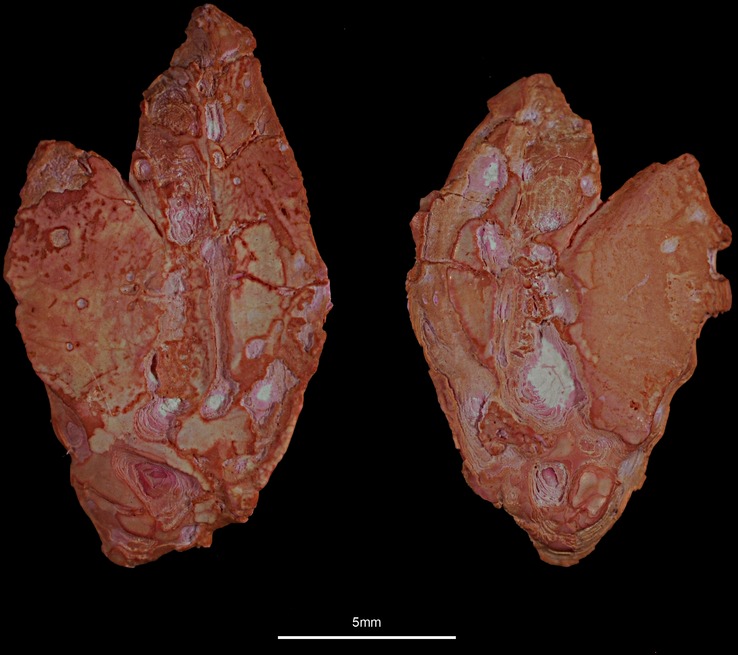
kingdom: Animalia
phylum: Chordata
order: Scorpaeniformes
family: Sebastidae
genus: Sebastes
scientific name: Sebastes norvegicus
